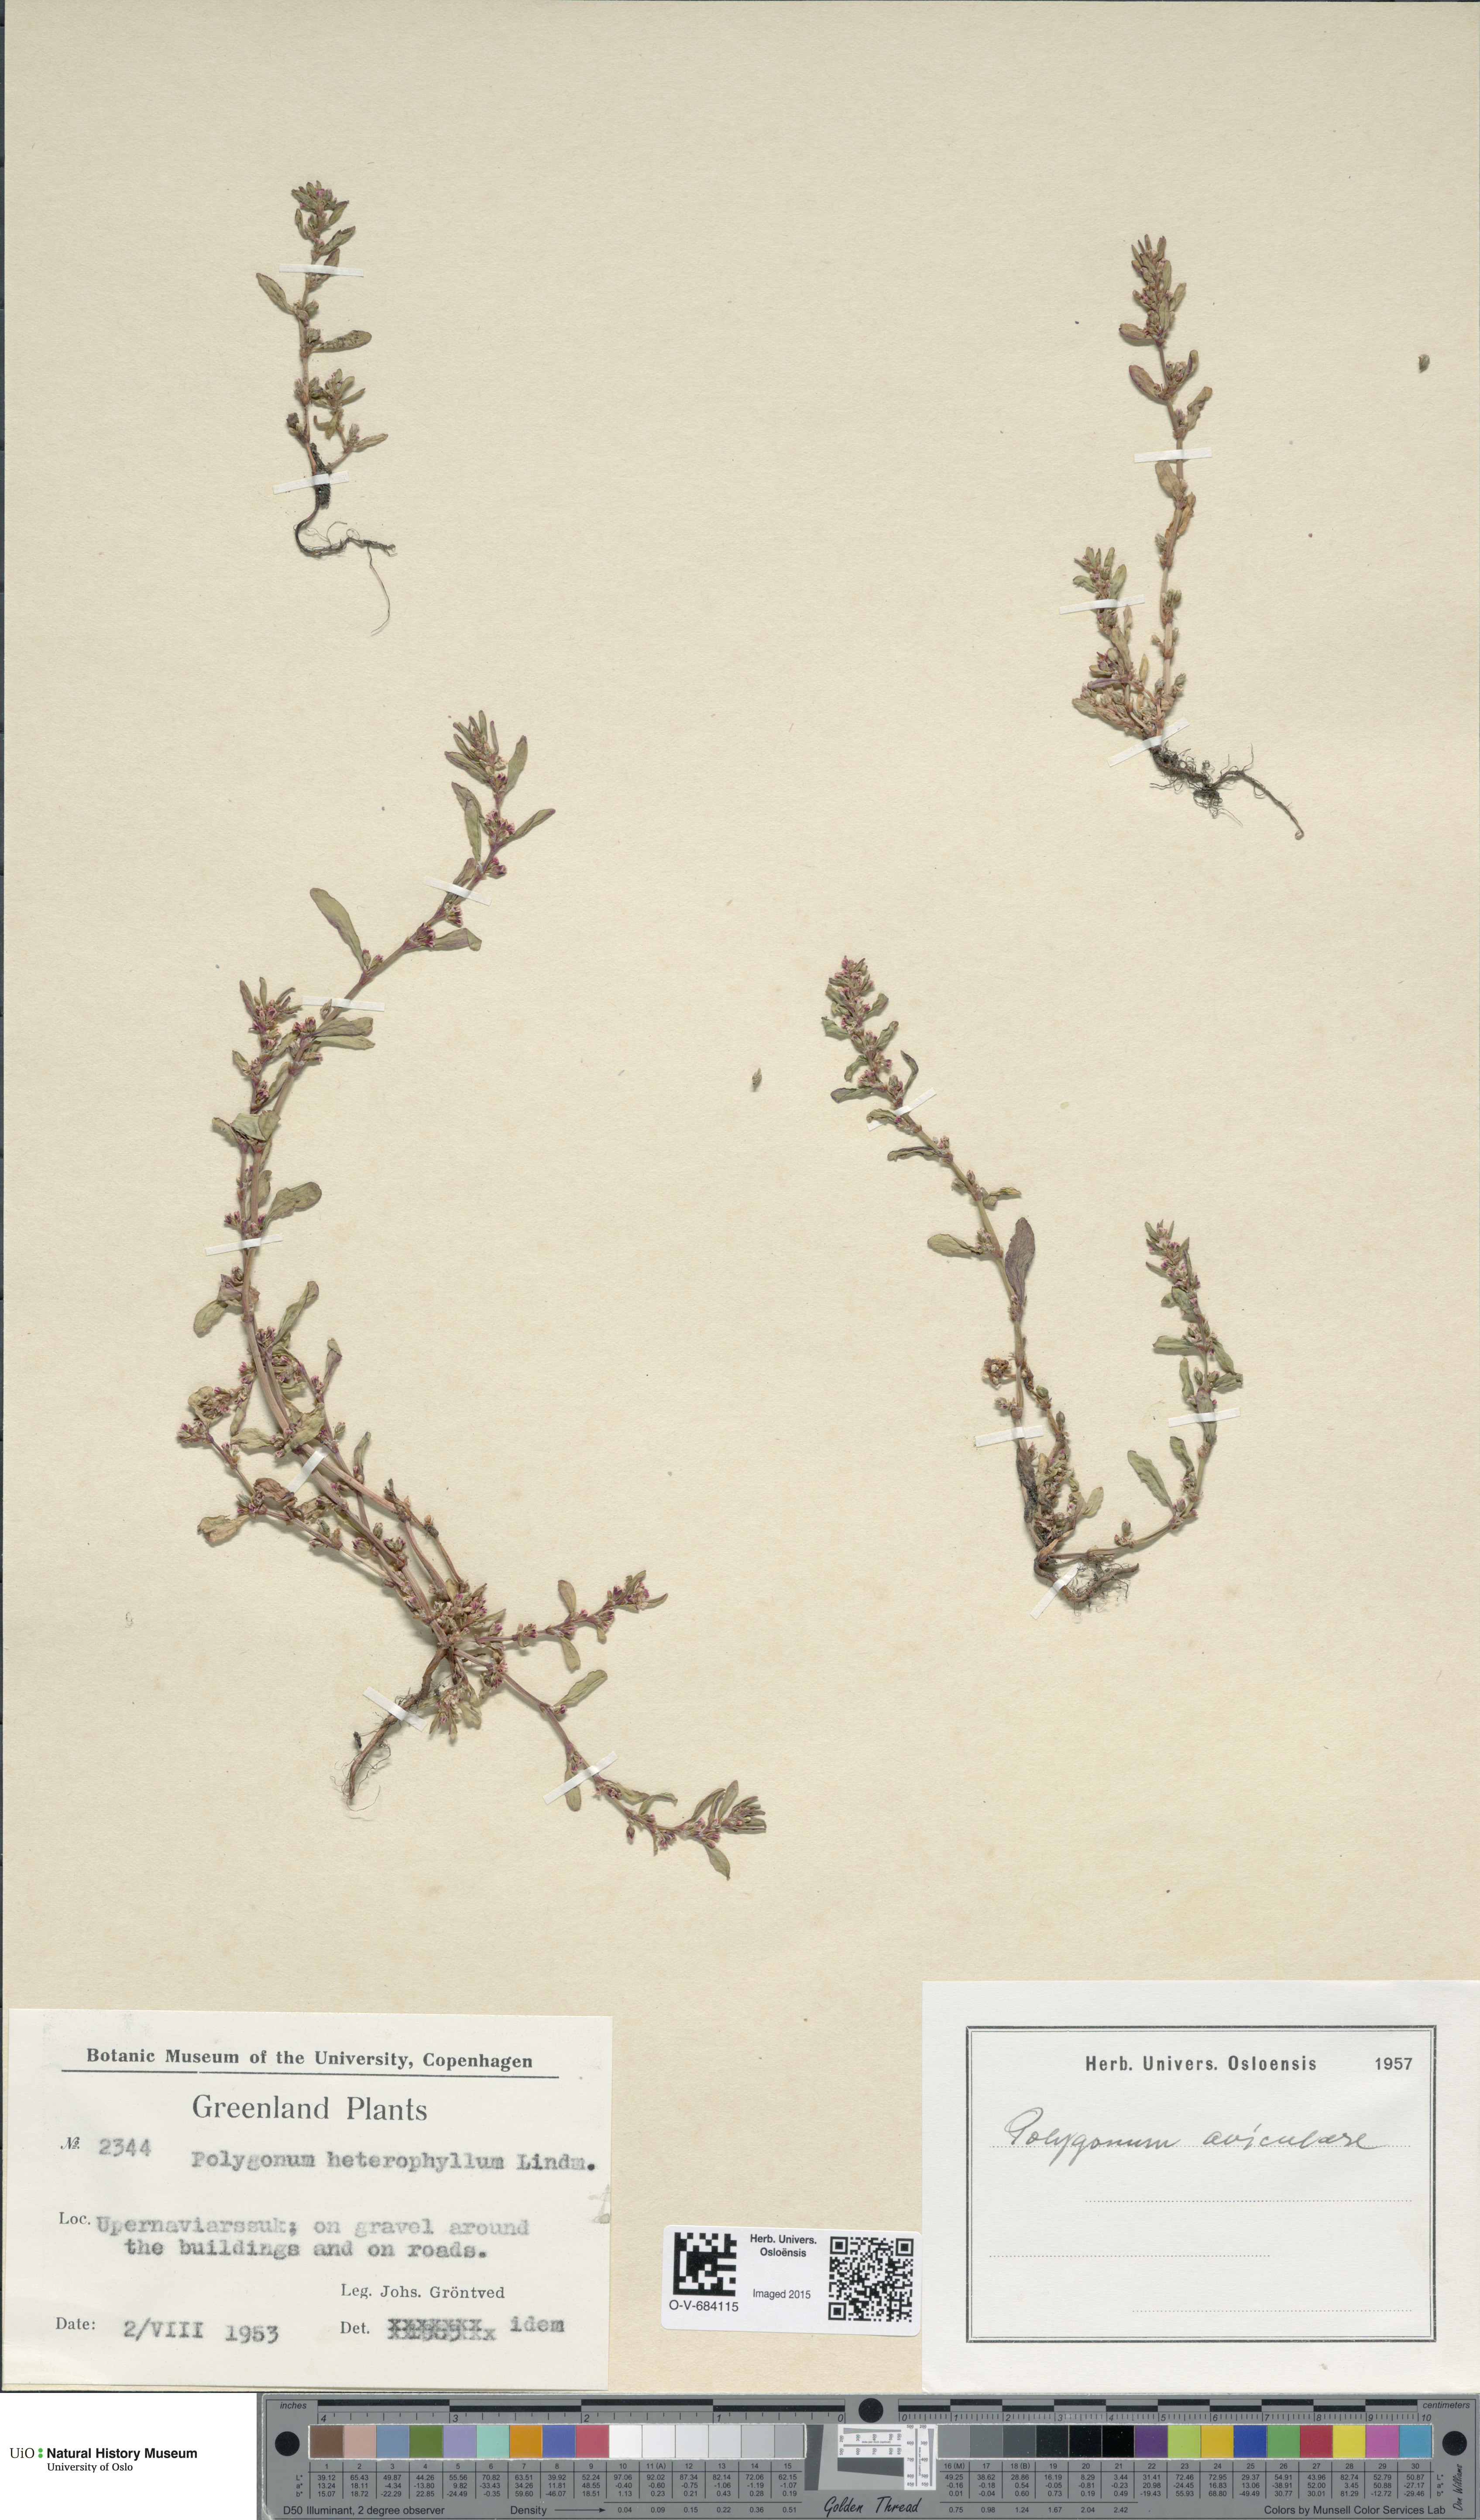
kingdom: Plantae
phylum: Tracheophyta
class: Magnoliopsida
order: Caryophyllales
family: Polygonaceae
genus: Polygonum
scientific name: Polygonum aviculare
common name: Prostrate knotweed
